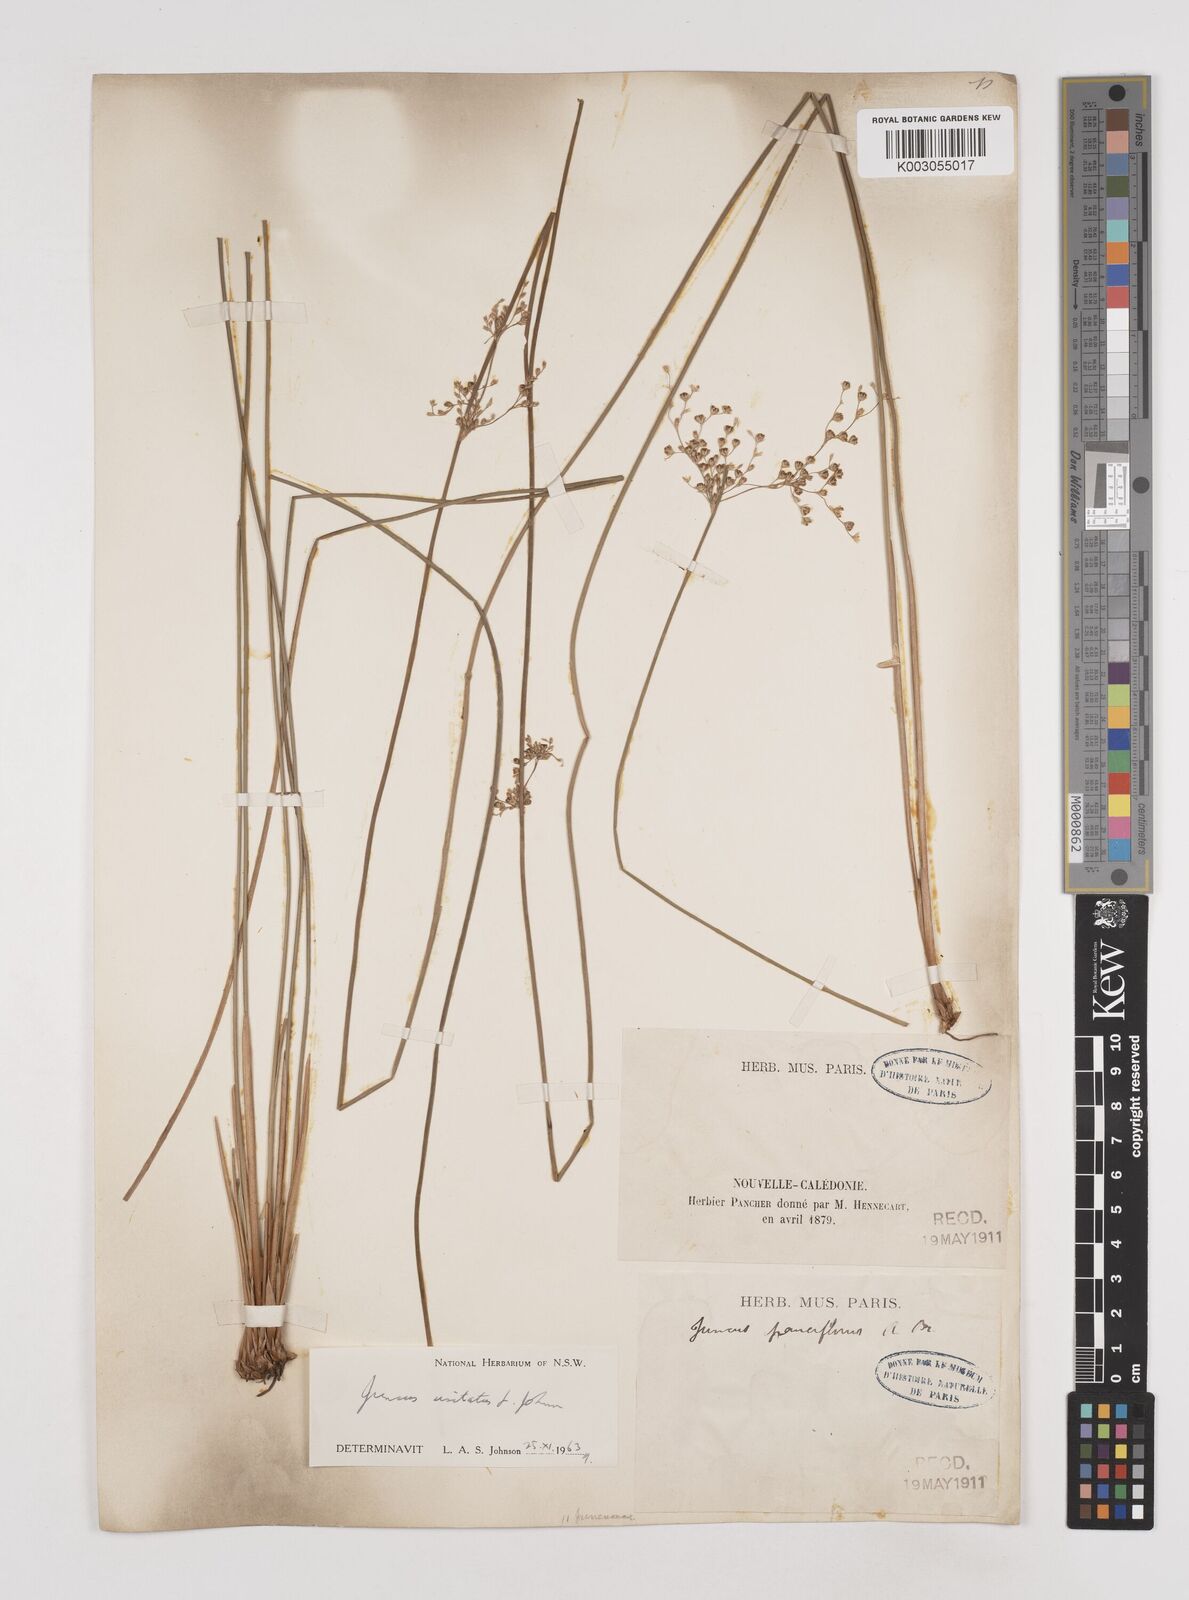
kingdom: Plantae
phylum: Tracheophyta
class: Liliopsida
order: Poales
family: Juncaceae
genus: Juncus
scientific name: Juncus usitatus
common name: Rush
